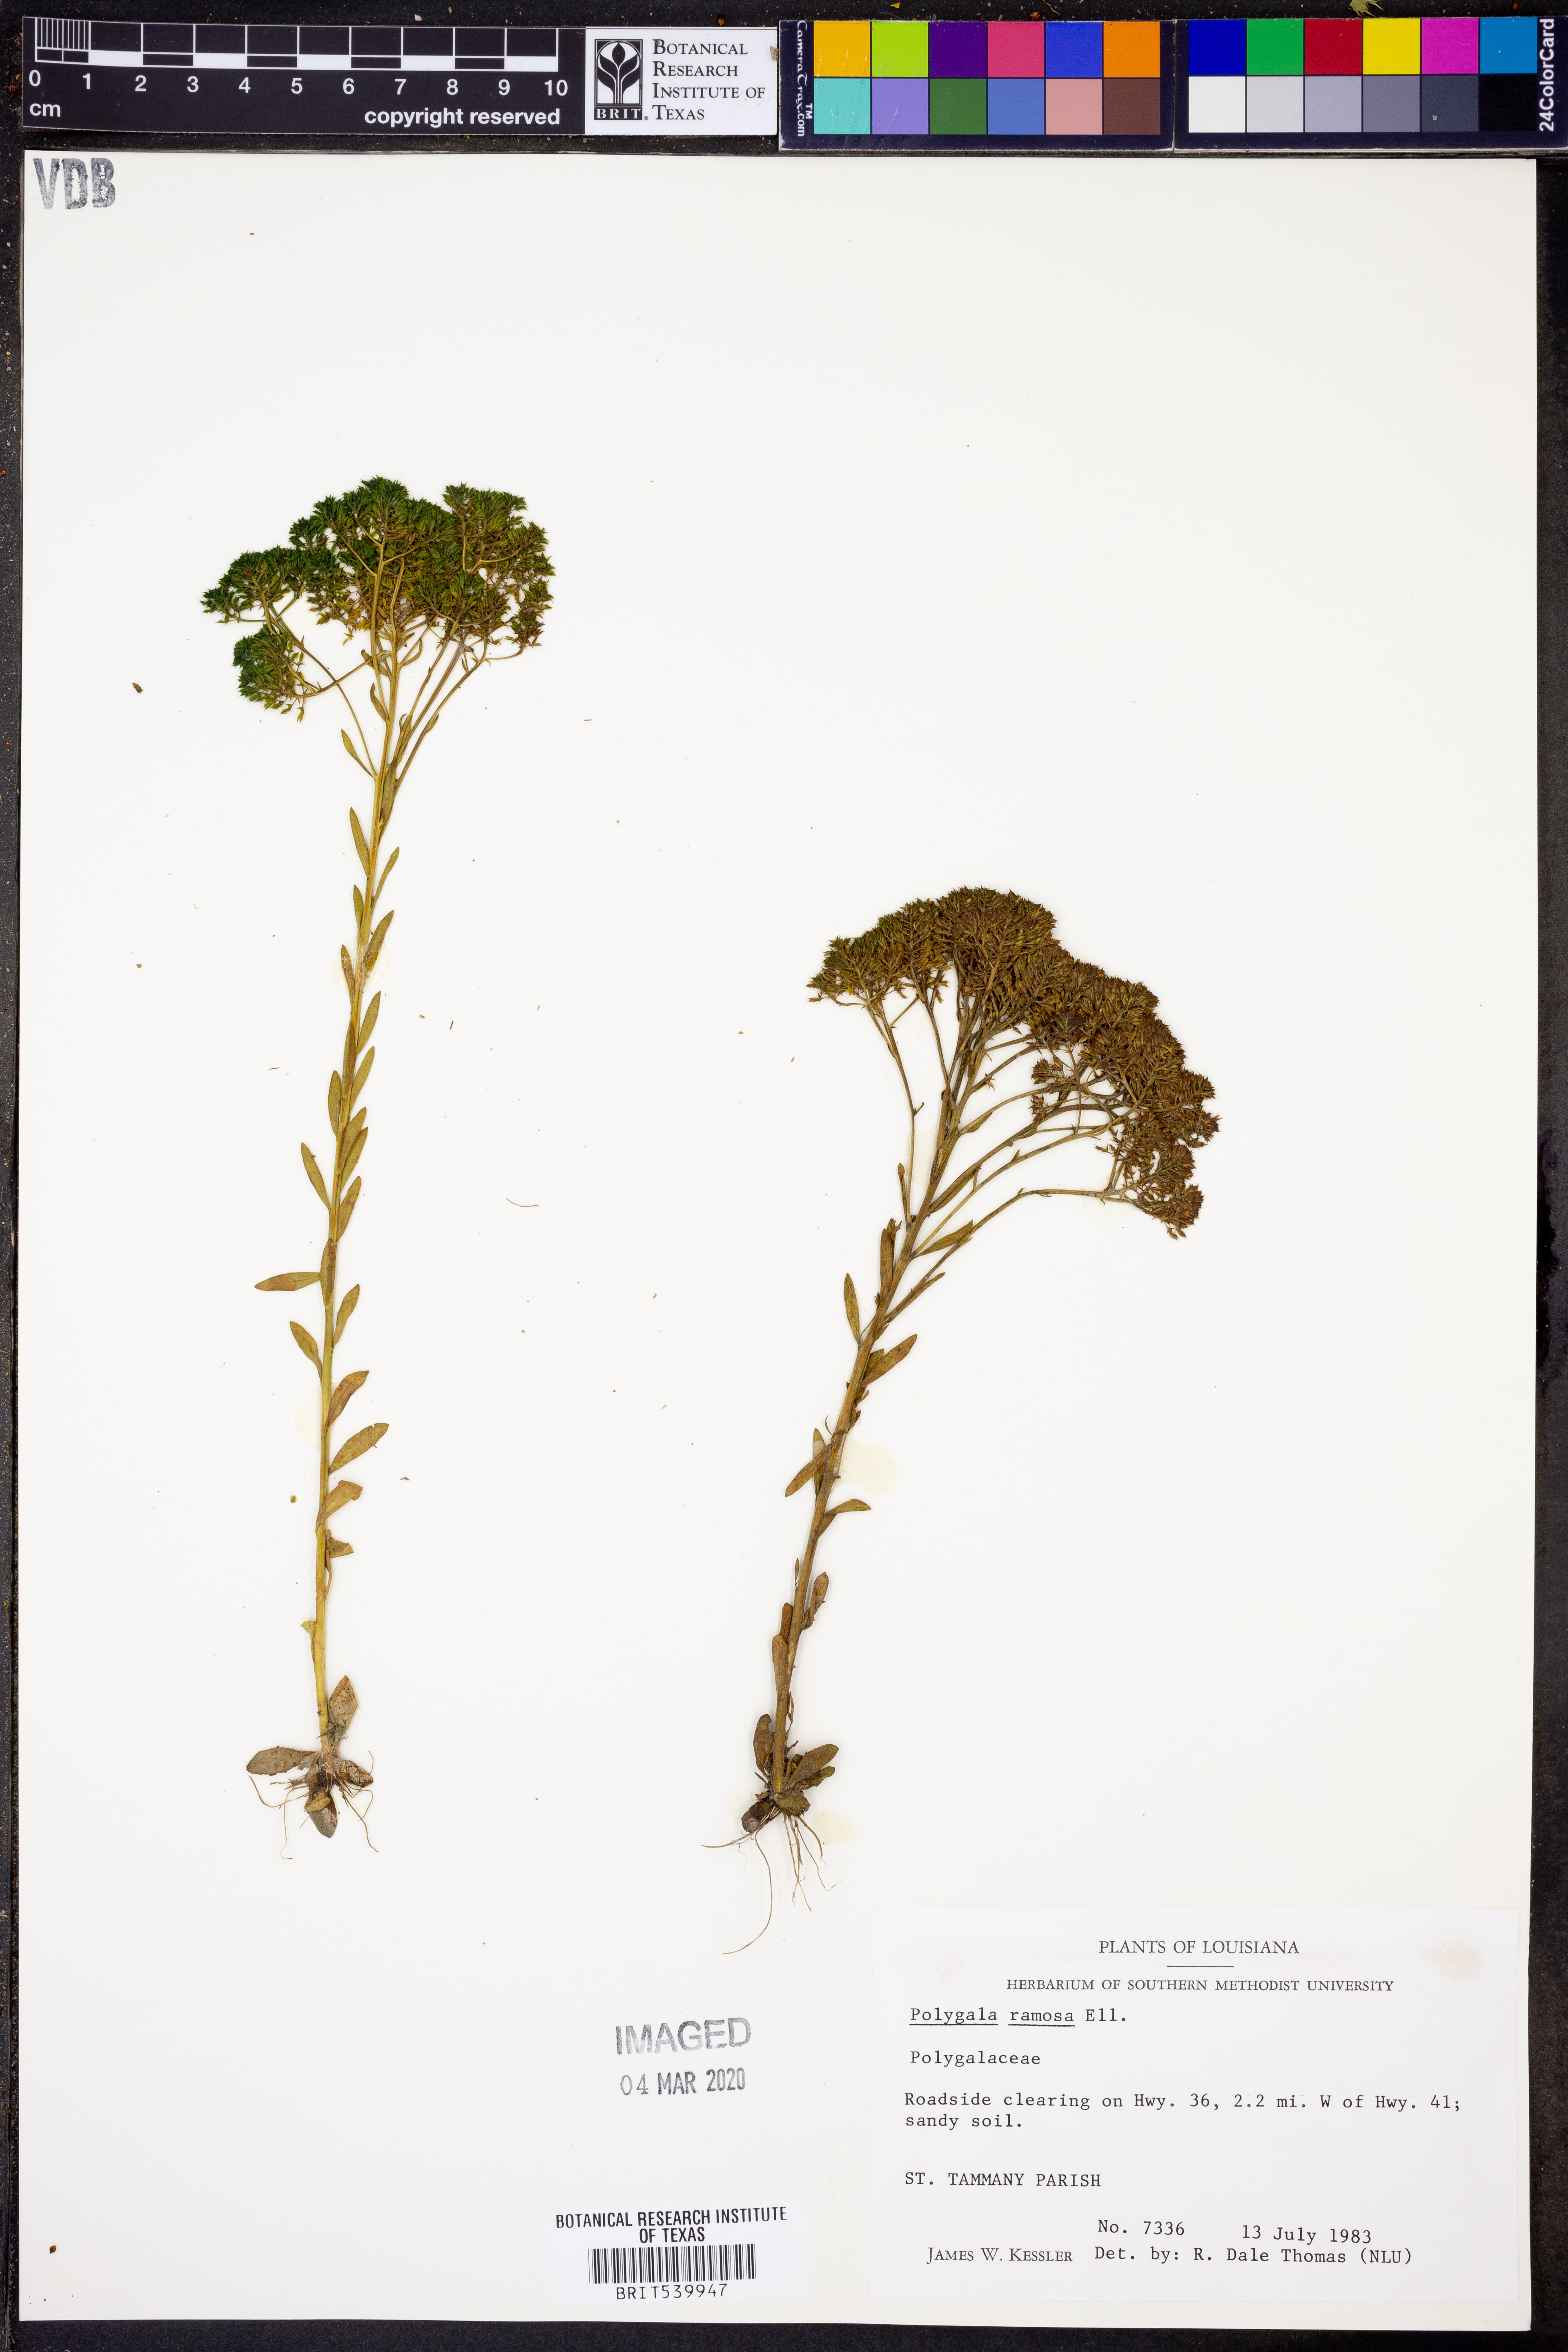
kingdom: Plantae
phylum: Tracheophyta
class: Magnoliopsida
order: Fabales
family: Polygalaceae
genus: Polygala
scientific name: Polygala ramosa
